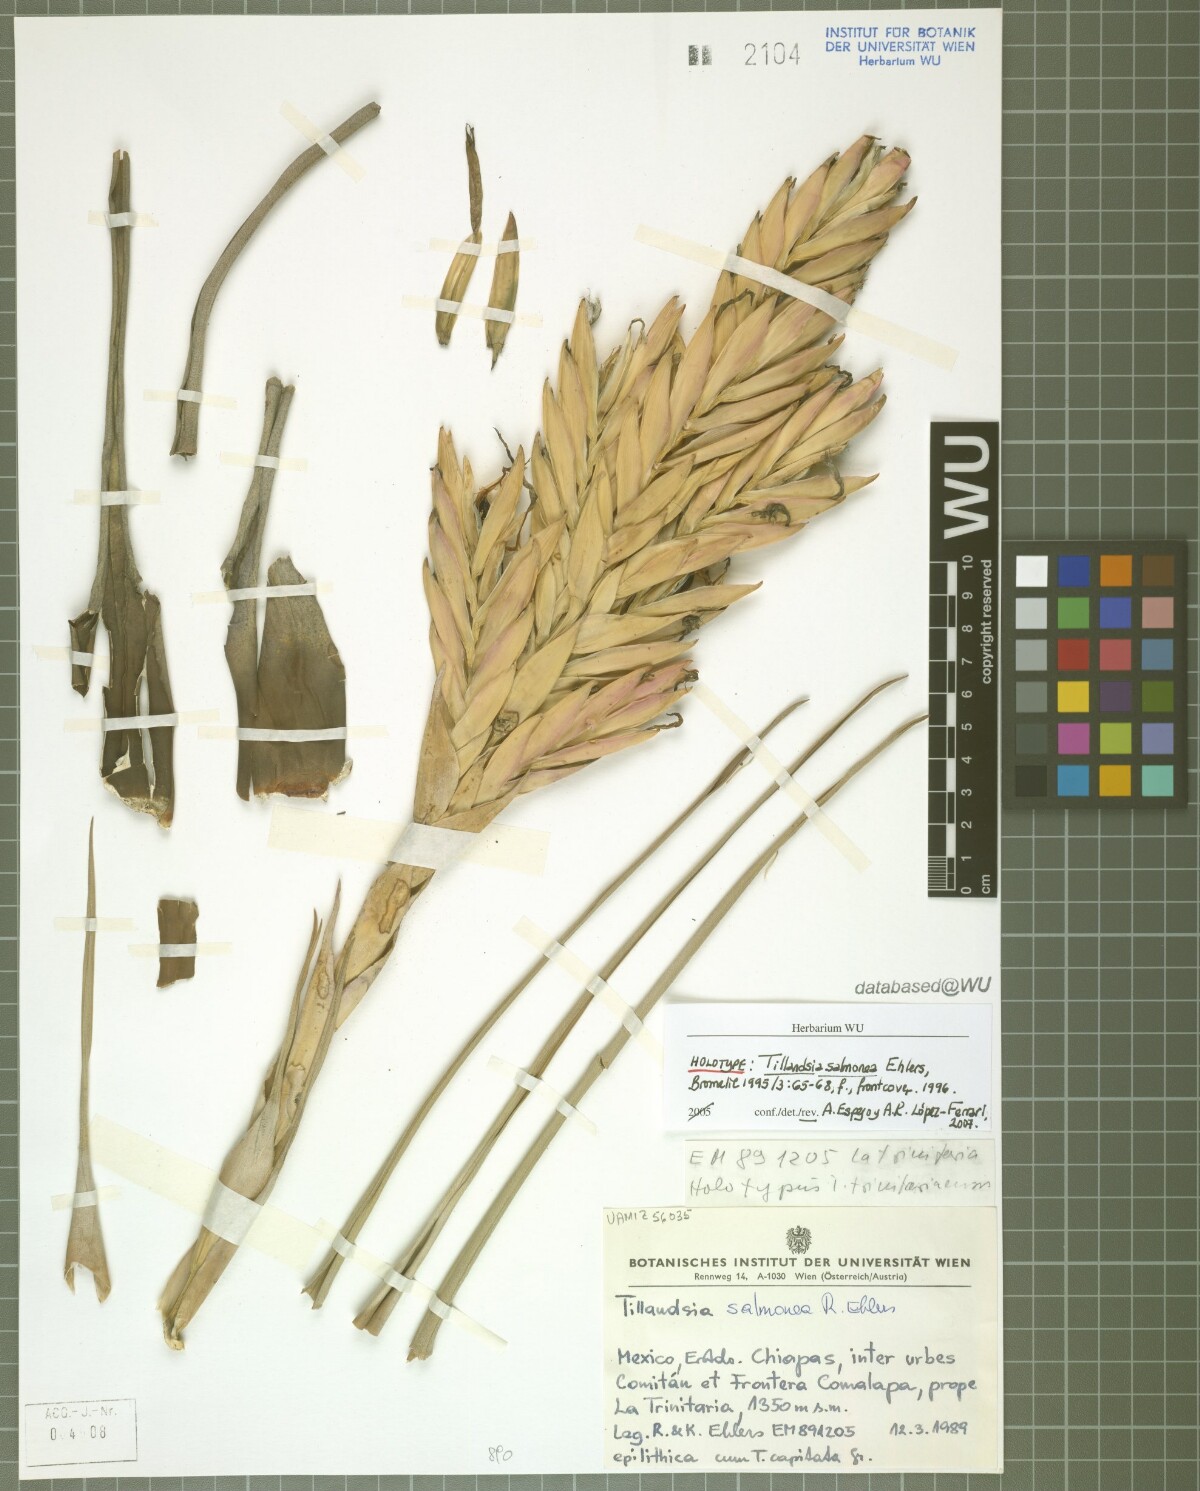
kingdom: Plantae
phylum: Tracheophyta
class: Liliopsida
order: Poales
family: Bromeliaceae
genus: Tillandsia
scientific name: Tillandsia salmonea
